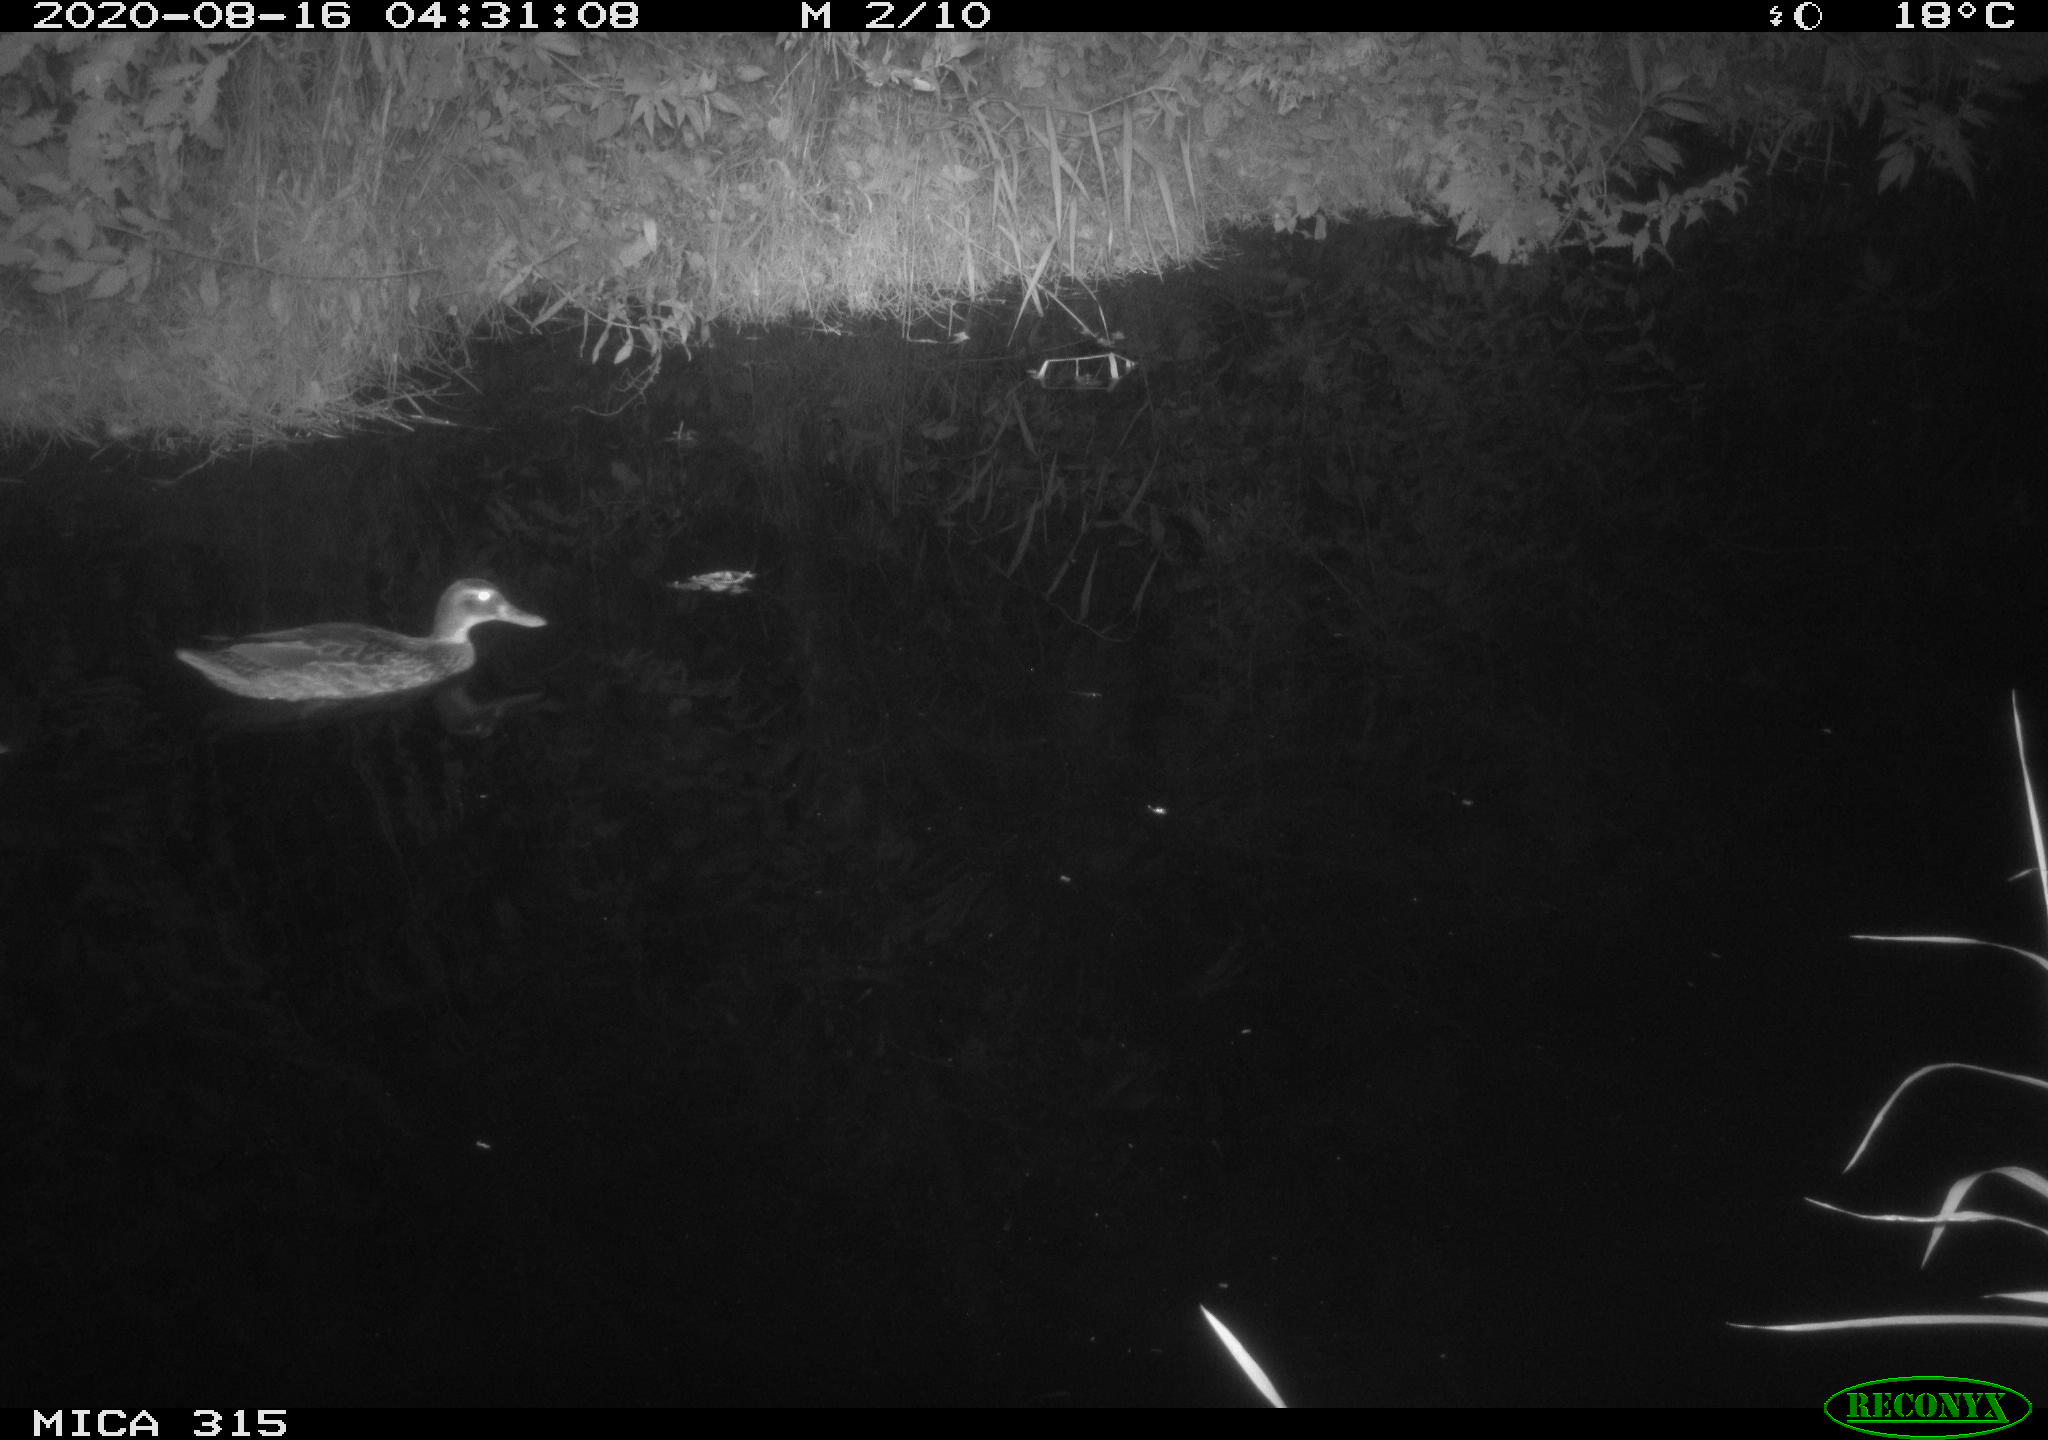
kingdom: Animalia
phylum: Chordata
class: Aves
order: Anseriformes
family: Anatidae
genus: Anas
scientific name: Anas platyrhynchos
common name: Mallard
